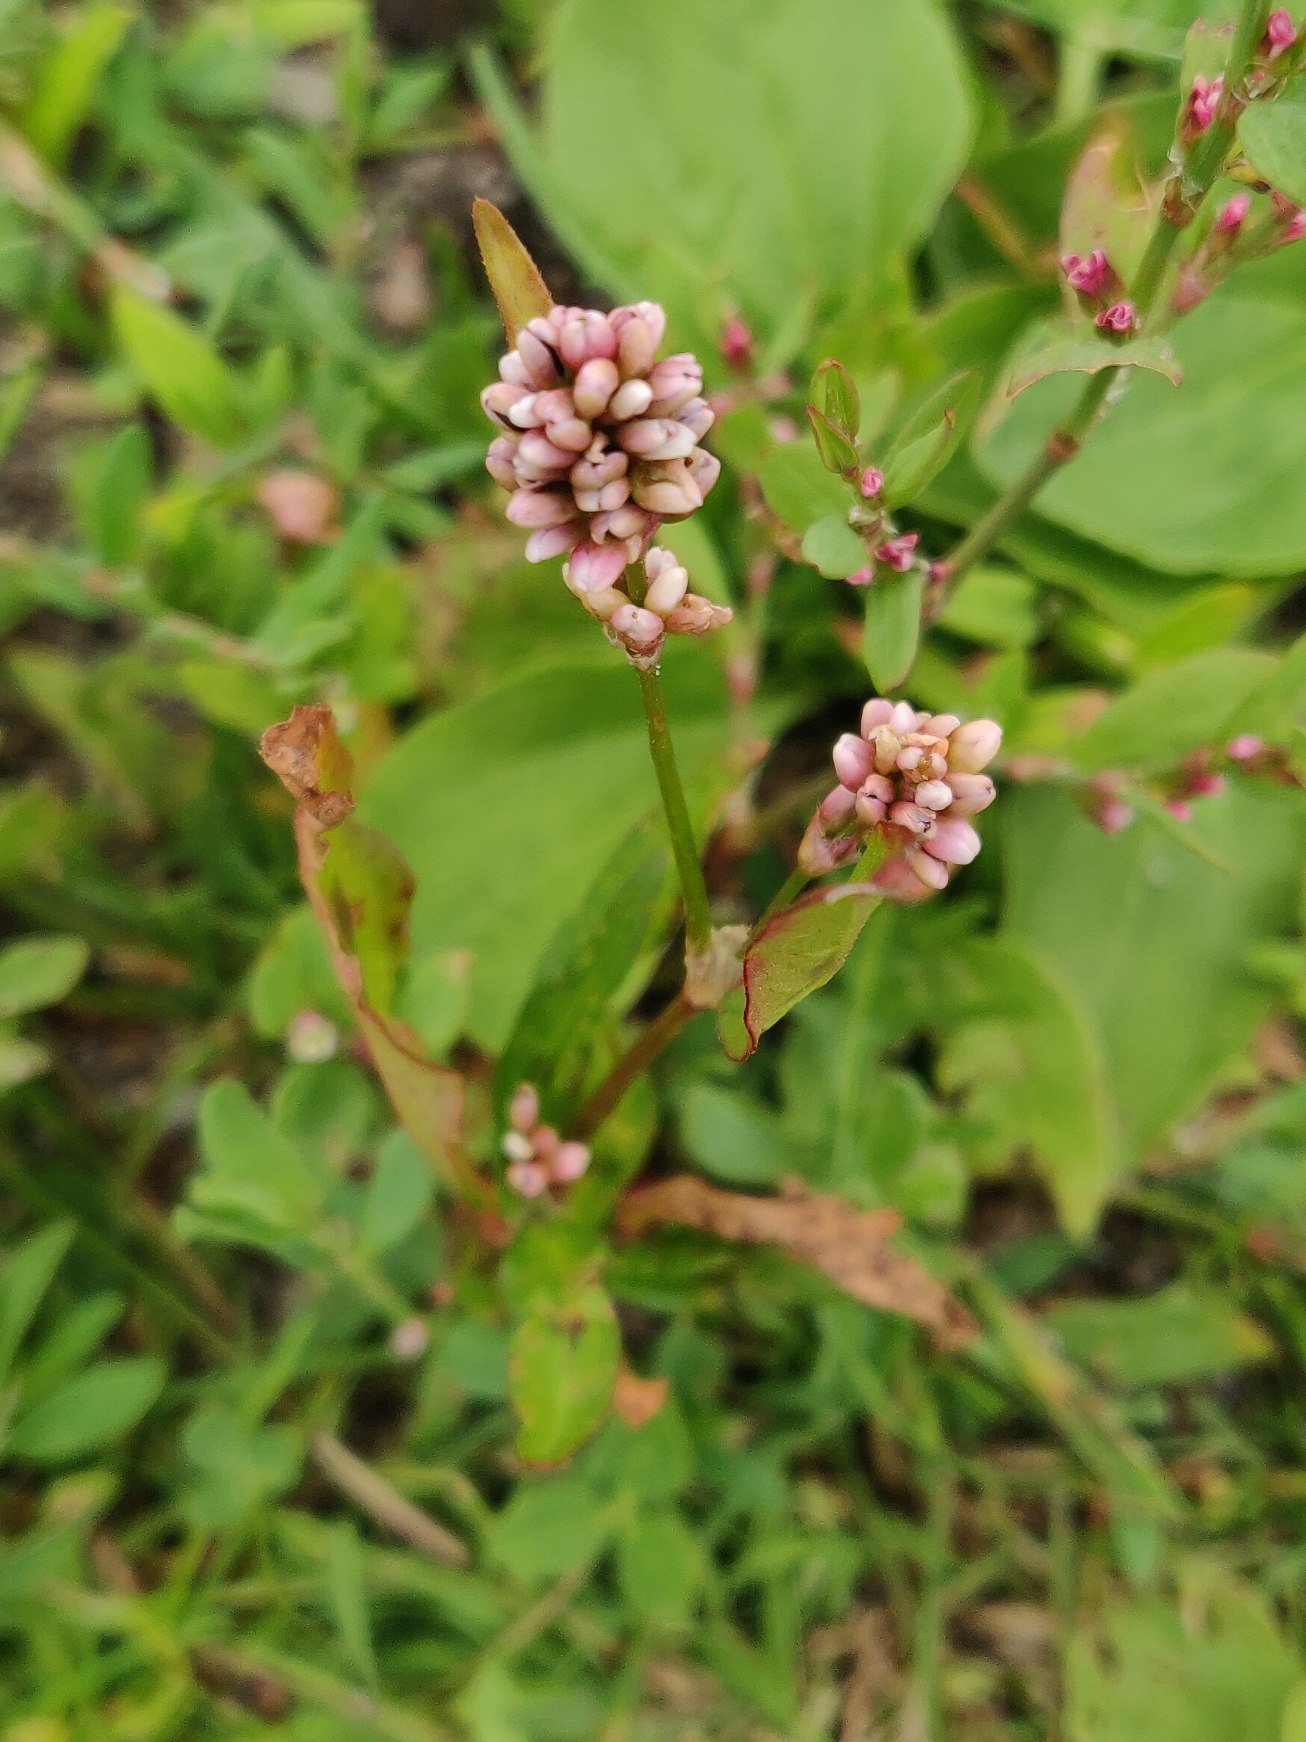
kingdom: Plantae
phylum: Tracheophyta
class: Magnoliopsida
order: Caryophyllales
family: Polygonaceae
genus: Persicaria
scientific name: Persicaria maculosa
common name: Fersken-pileurt
